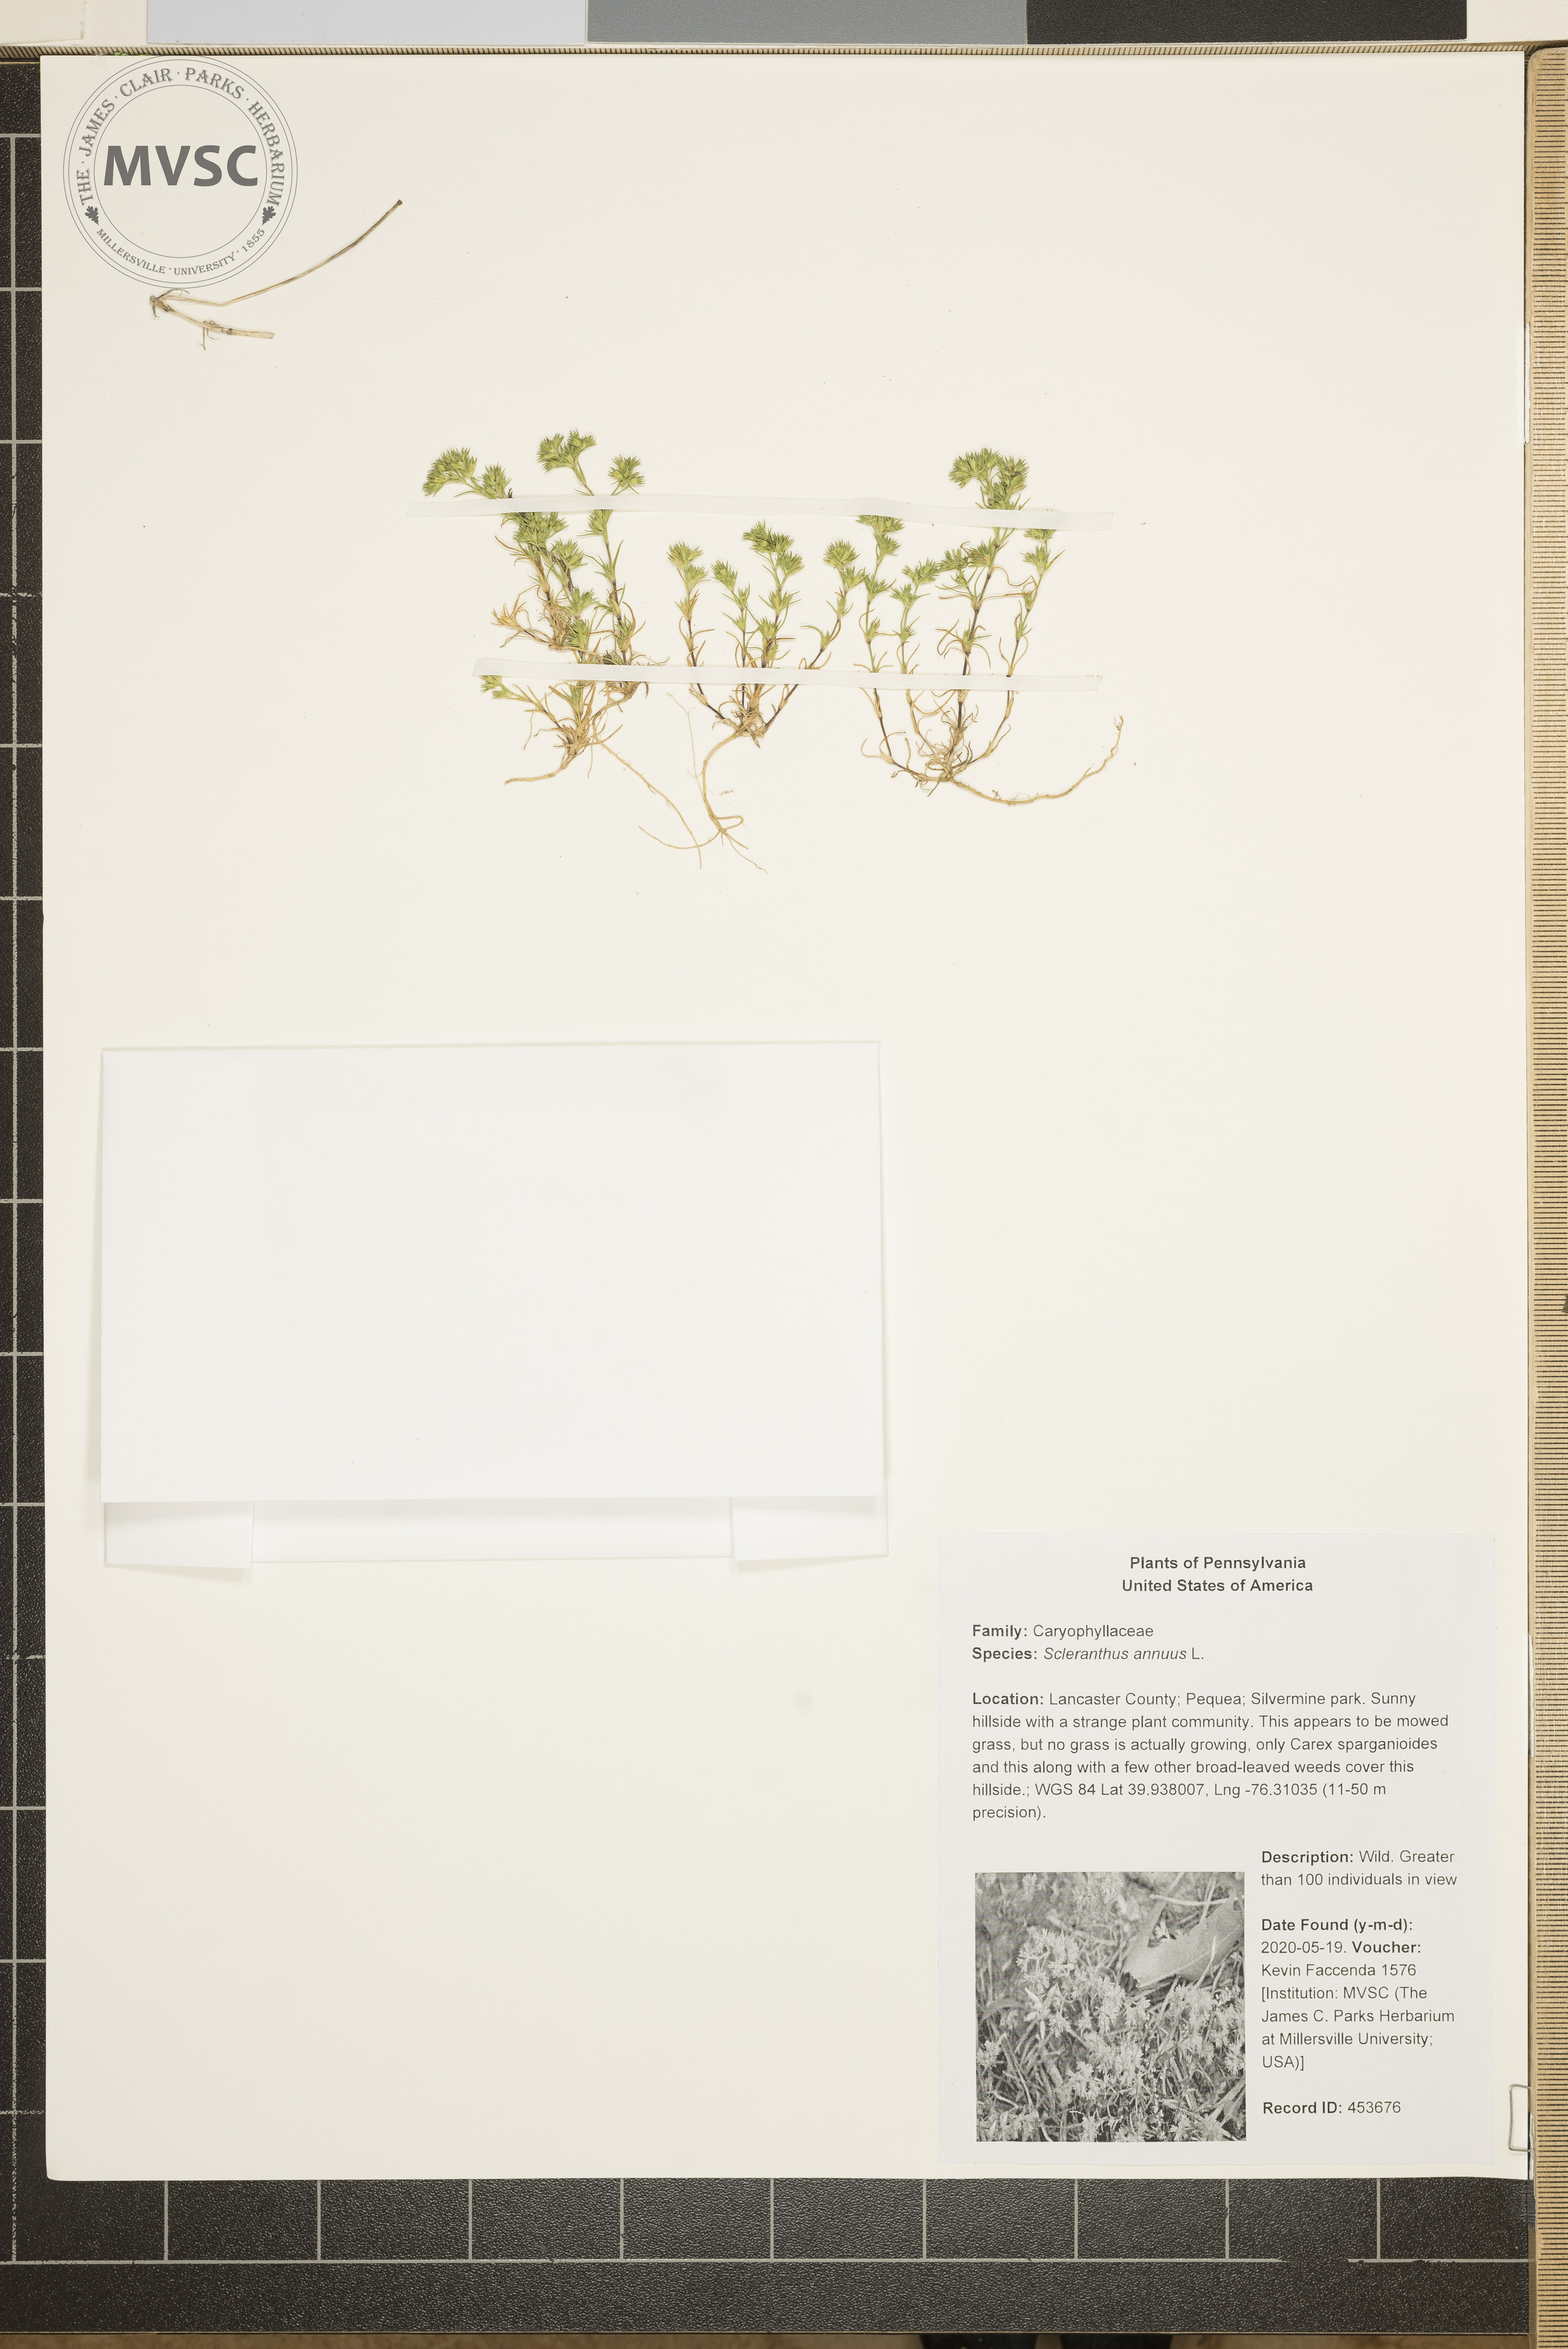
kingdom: Plantae
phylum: Tracheophyta
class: Magnoliopsida
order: Caryophyllales
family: Caryophyllaceae
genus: Scleranthus
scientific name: Scleranthus annuus
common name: Annual knawel
